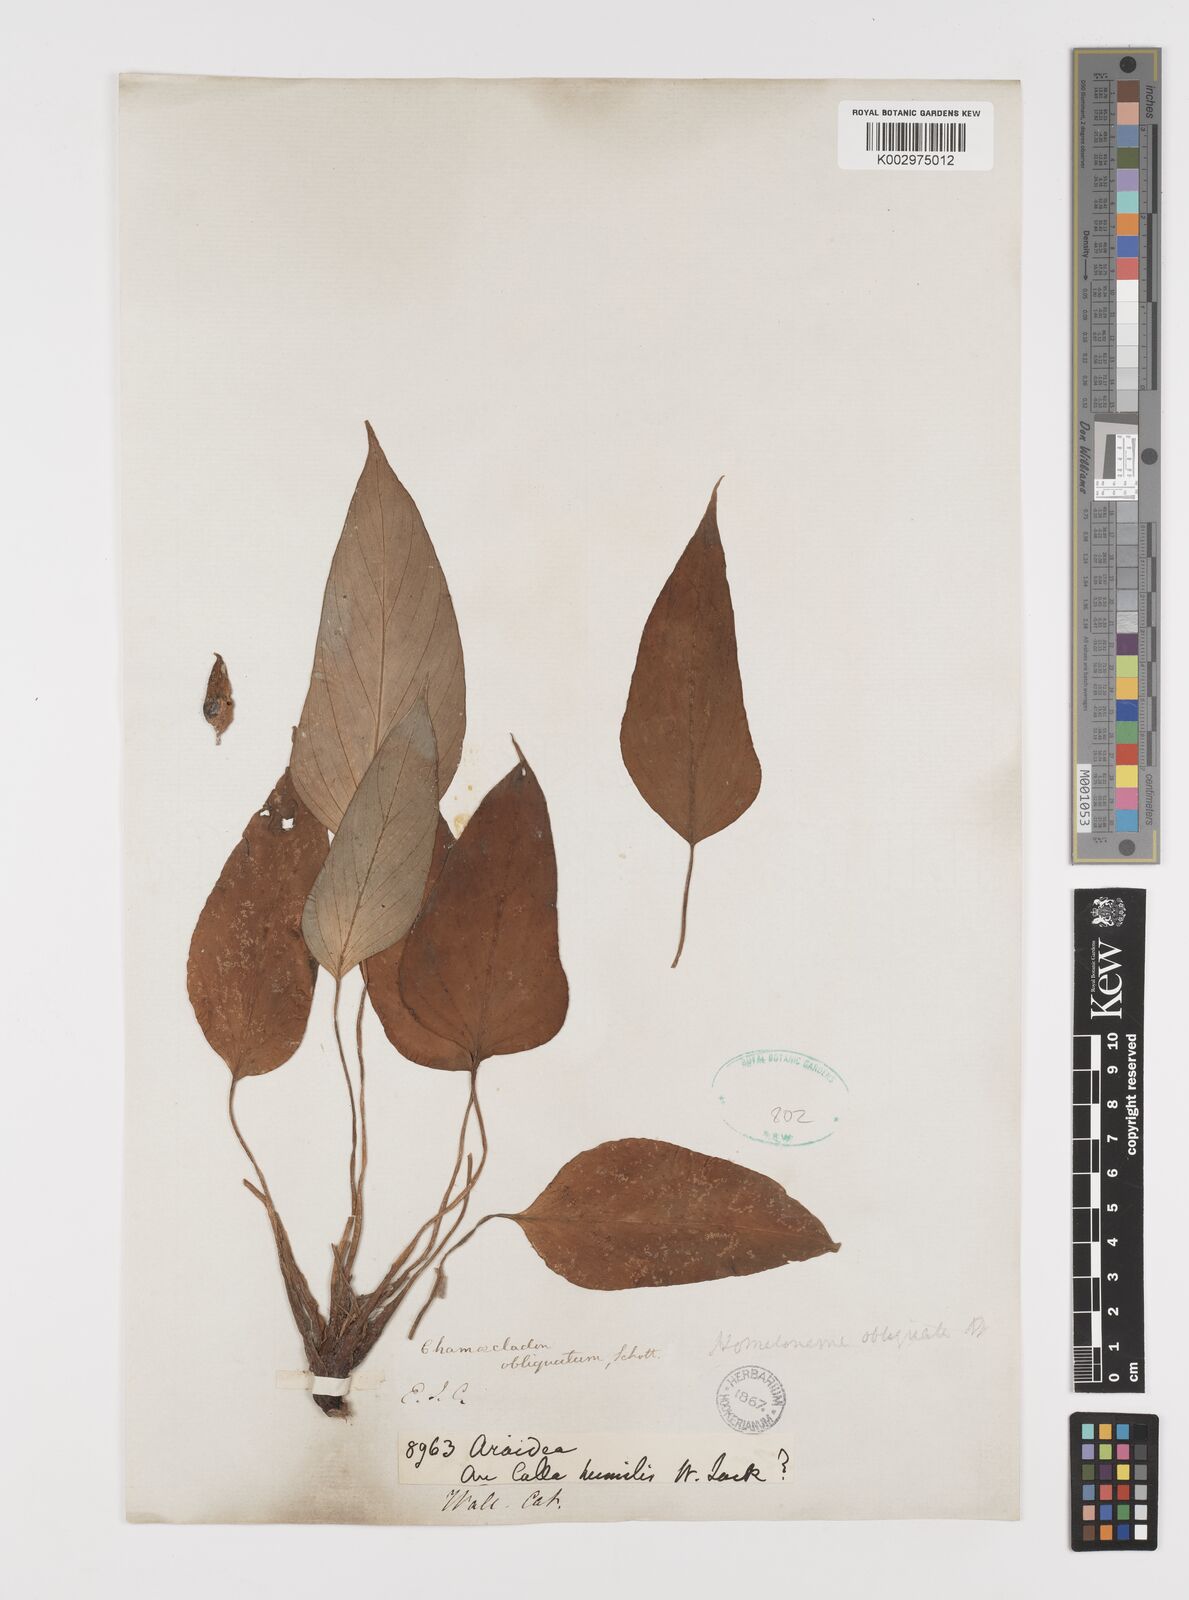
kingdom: Plantae
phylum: Tracheophyta
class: Liliopsida
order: Alismatales
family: Araceae
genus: Homalomena
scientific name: Homalomena griffithii
